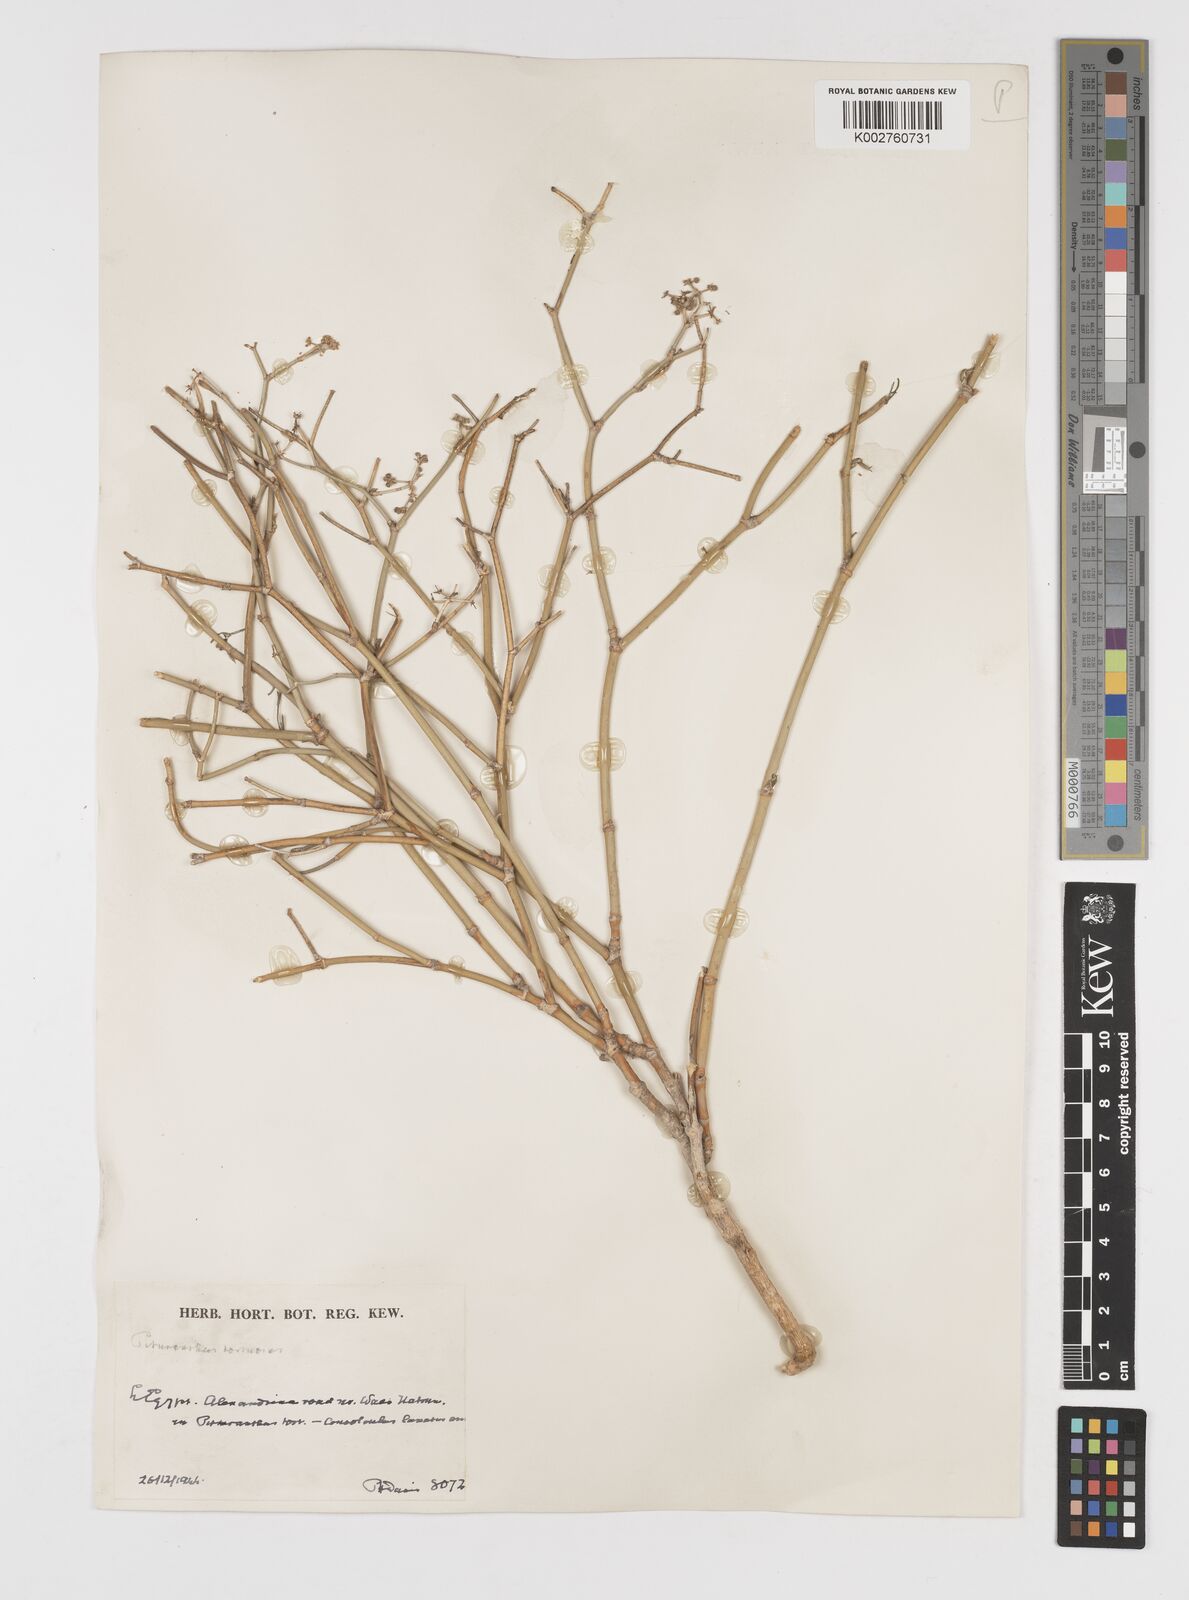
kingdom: Plantae
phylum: Tracheophyta
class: Magnoliopsida
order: Apiales
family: Apiaceae
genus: Deverra
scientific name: Deverra tortuosa
